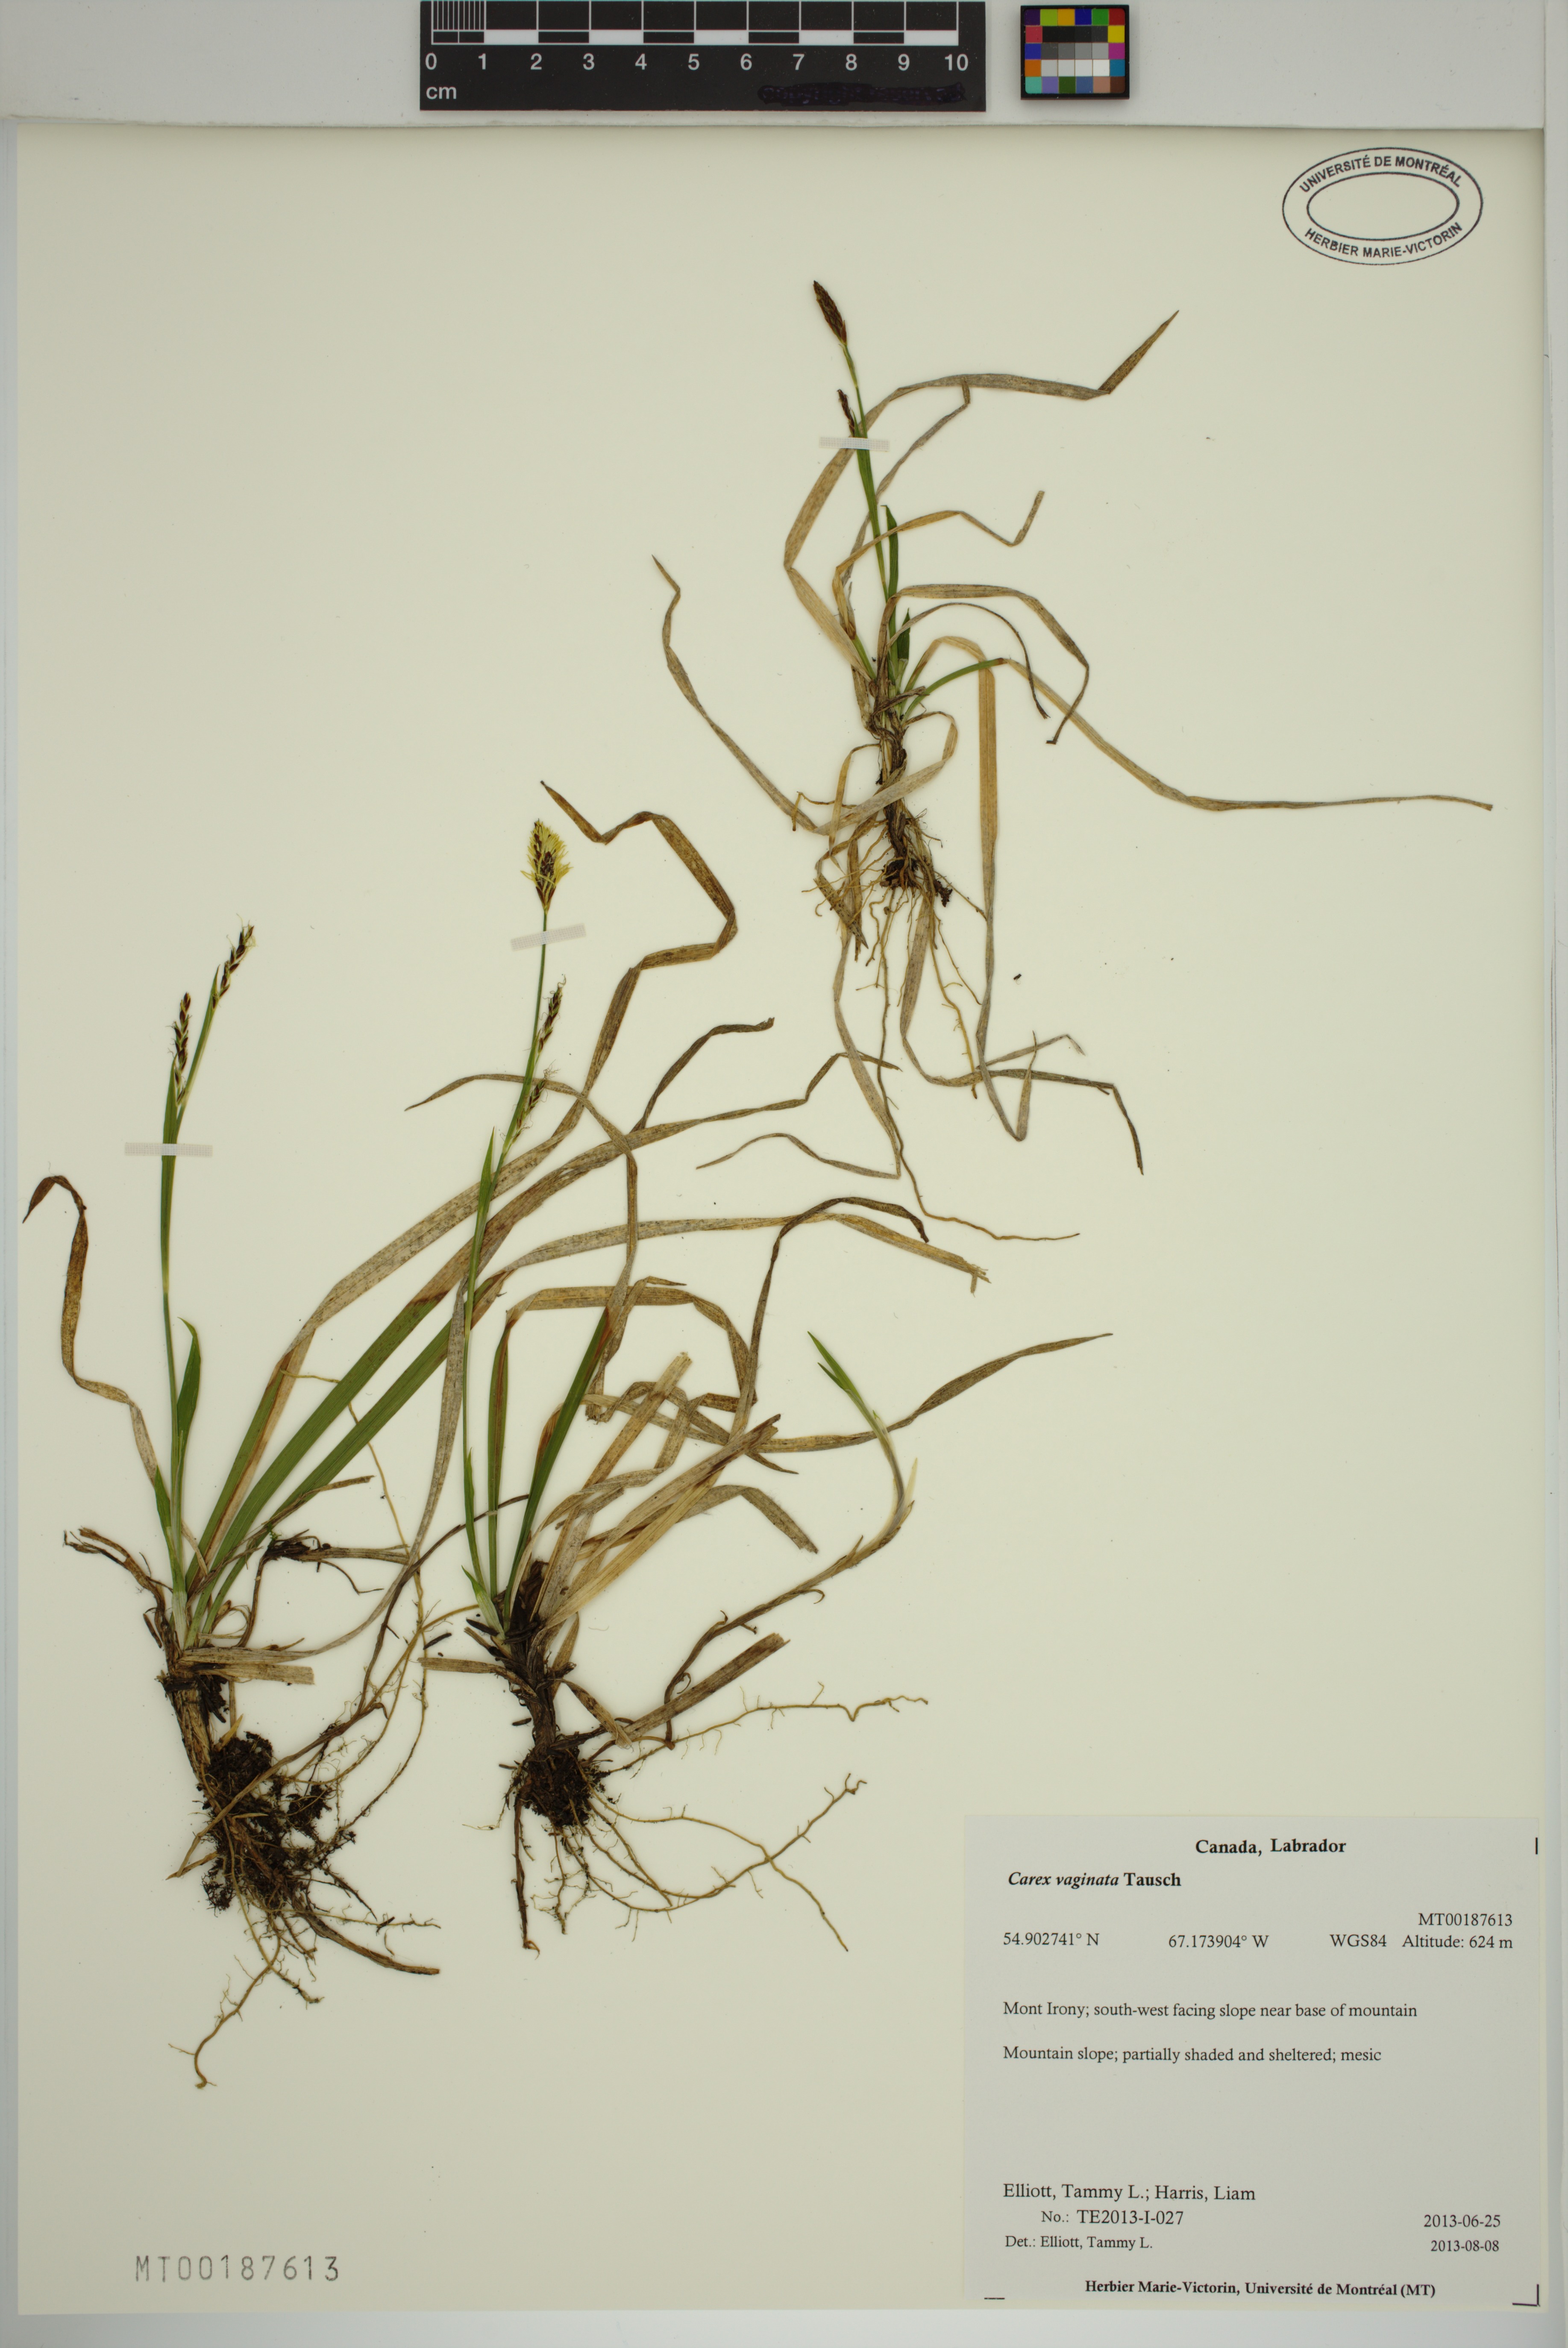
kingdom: Plantae
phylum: Tracheophyta
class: Liliopsida
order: Poales
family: Cyperaceae
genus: Carex
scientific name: Carex vaginata
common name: Sheathed sedge
